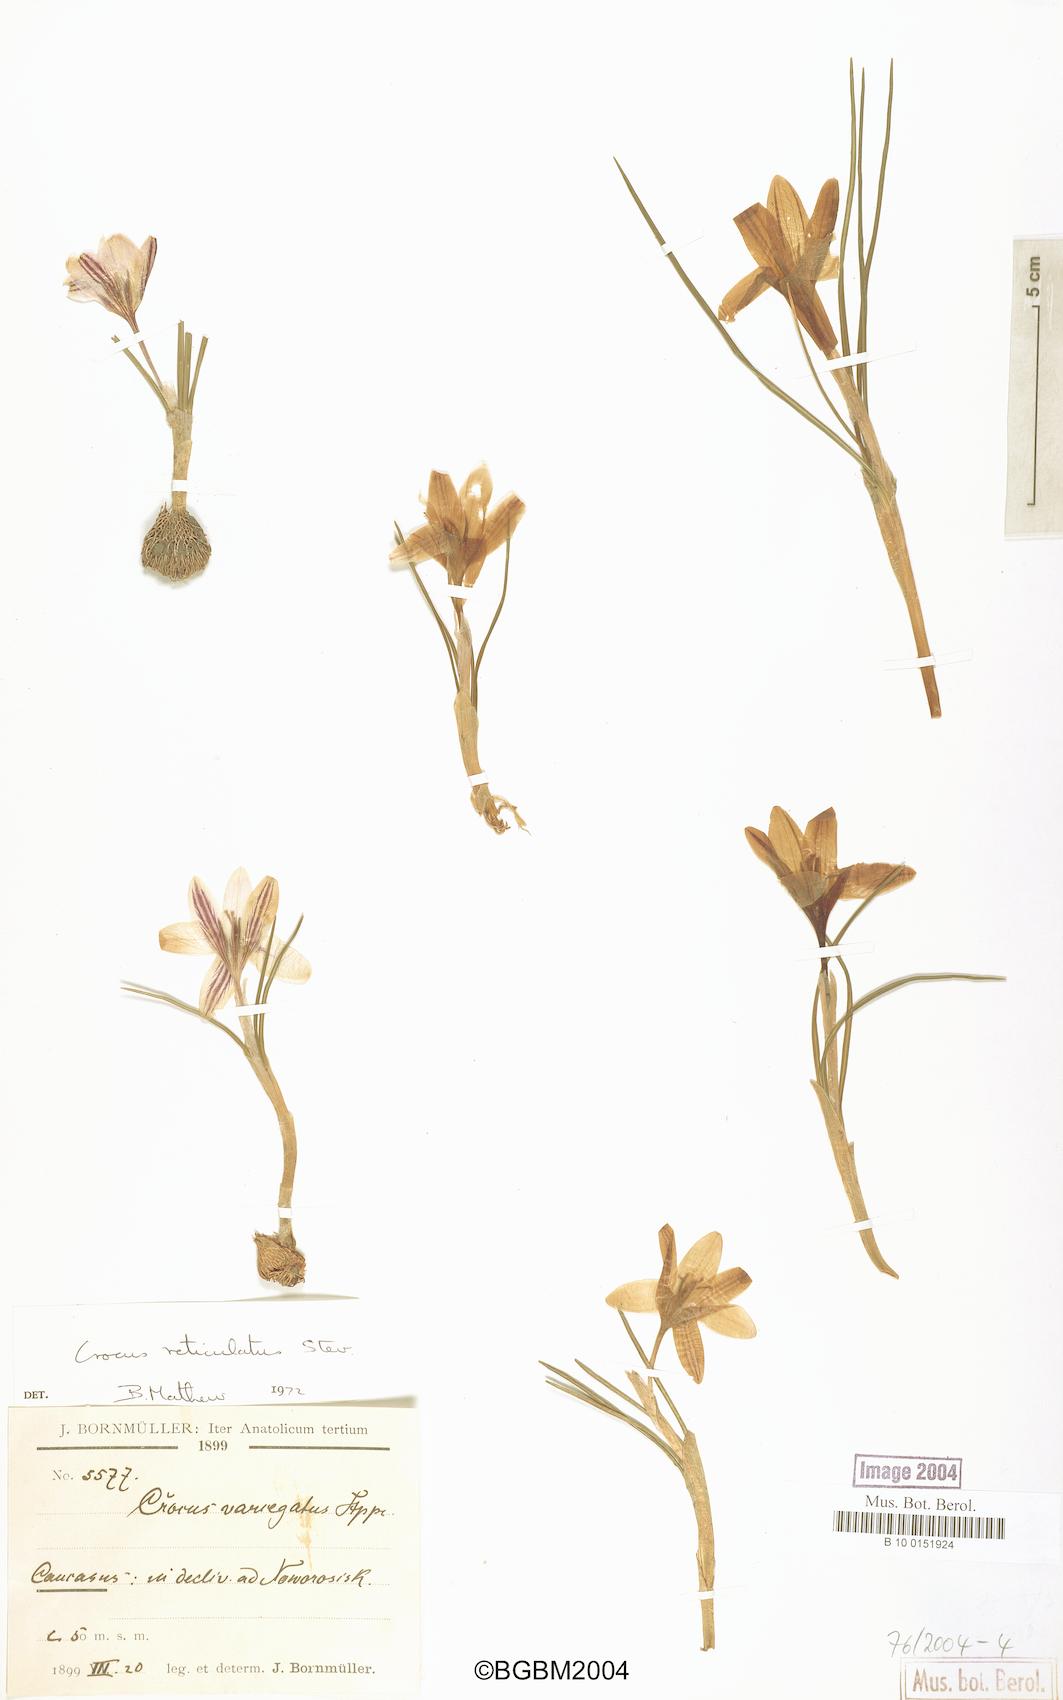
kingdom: Plantae
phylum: Tracheophyta
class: Liliopsida
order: Asparagales
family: Iridaceae
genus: Crocus
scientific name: Crocus reticulatus
